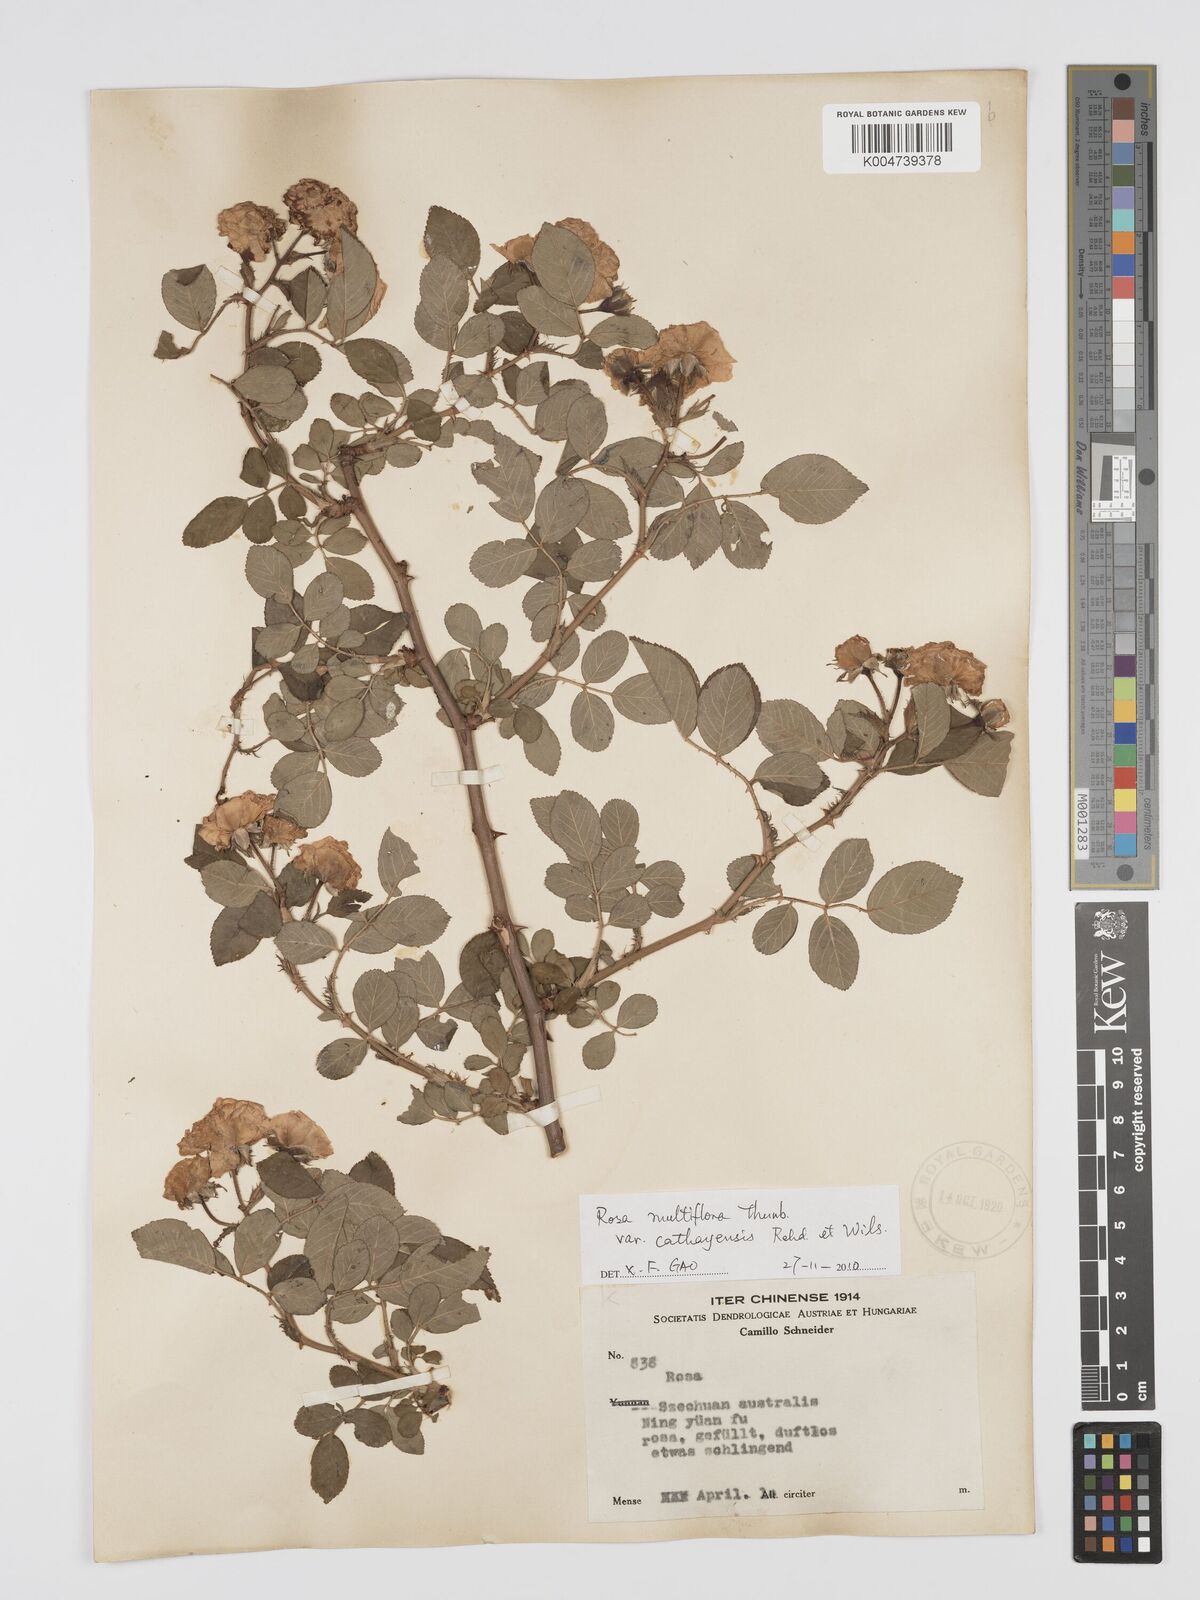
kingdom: Plantae
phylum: Tracheophyta
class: Magnoliopsida
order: Rosales
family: Rosaceae
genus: Rosa
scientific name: Rosa multiflora
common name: Multiflora rose
